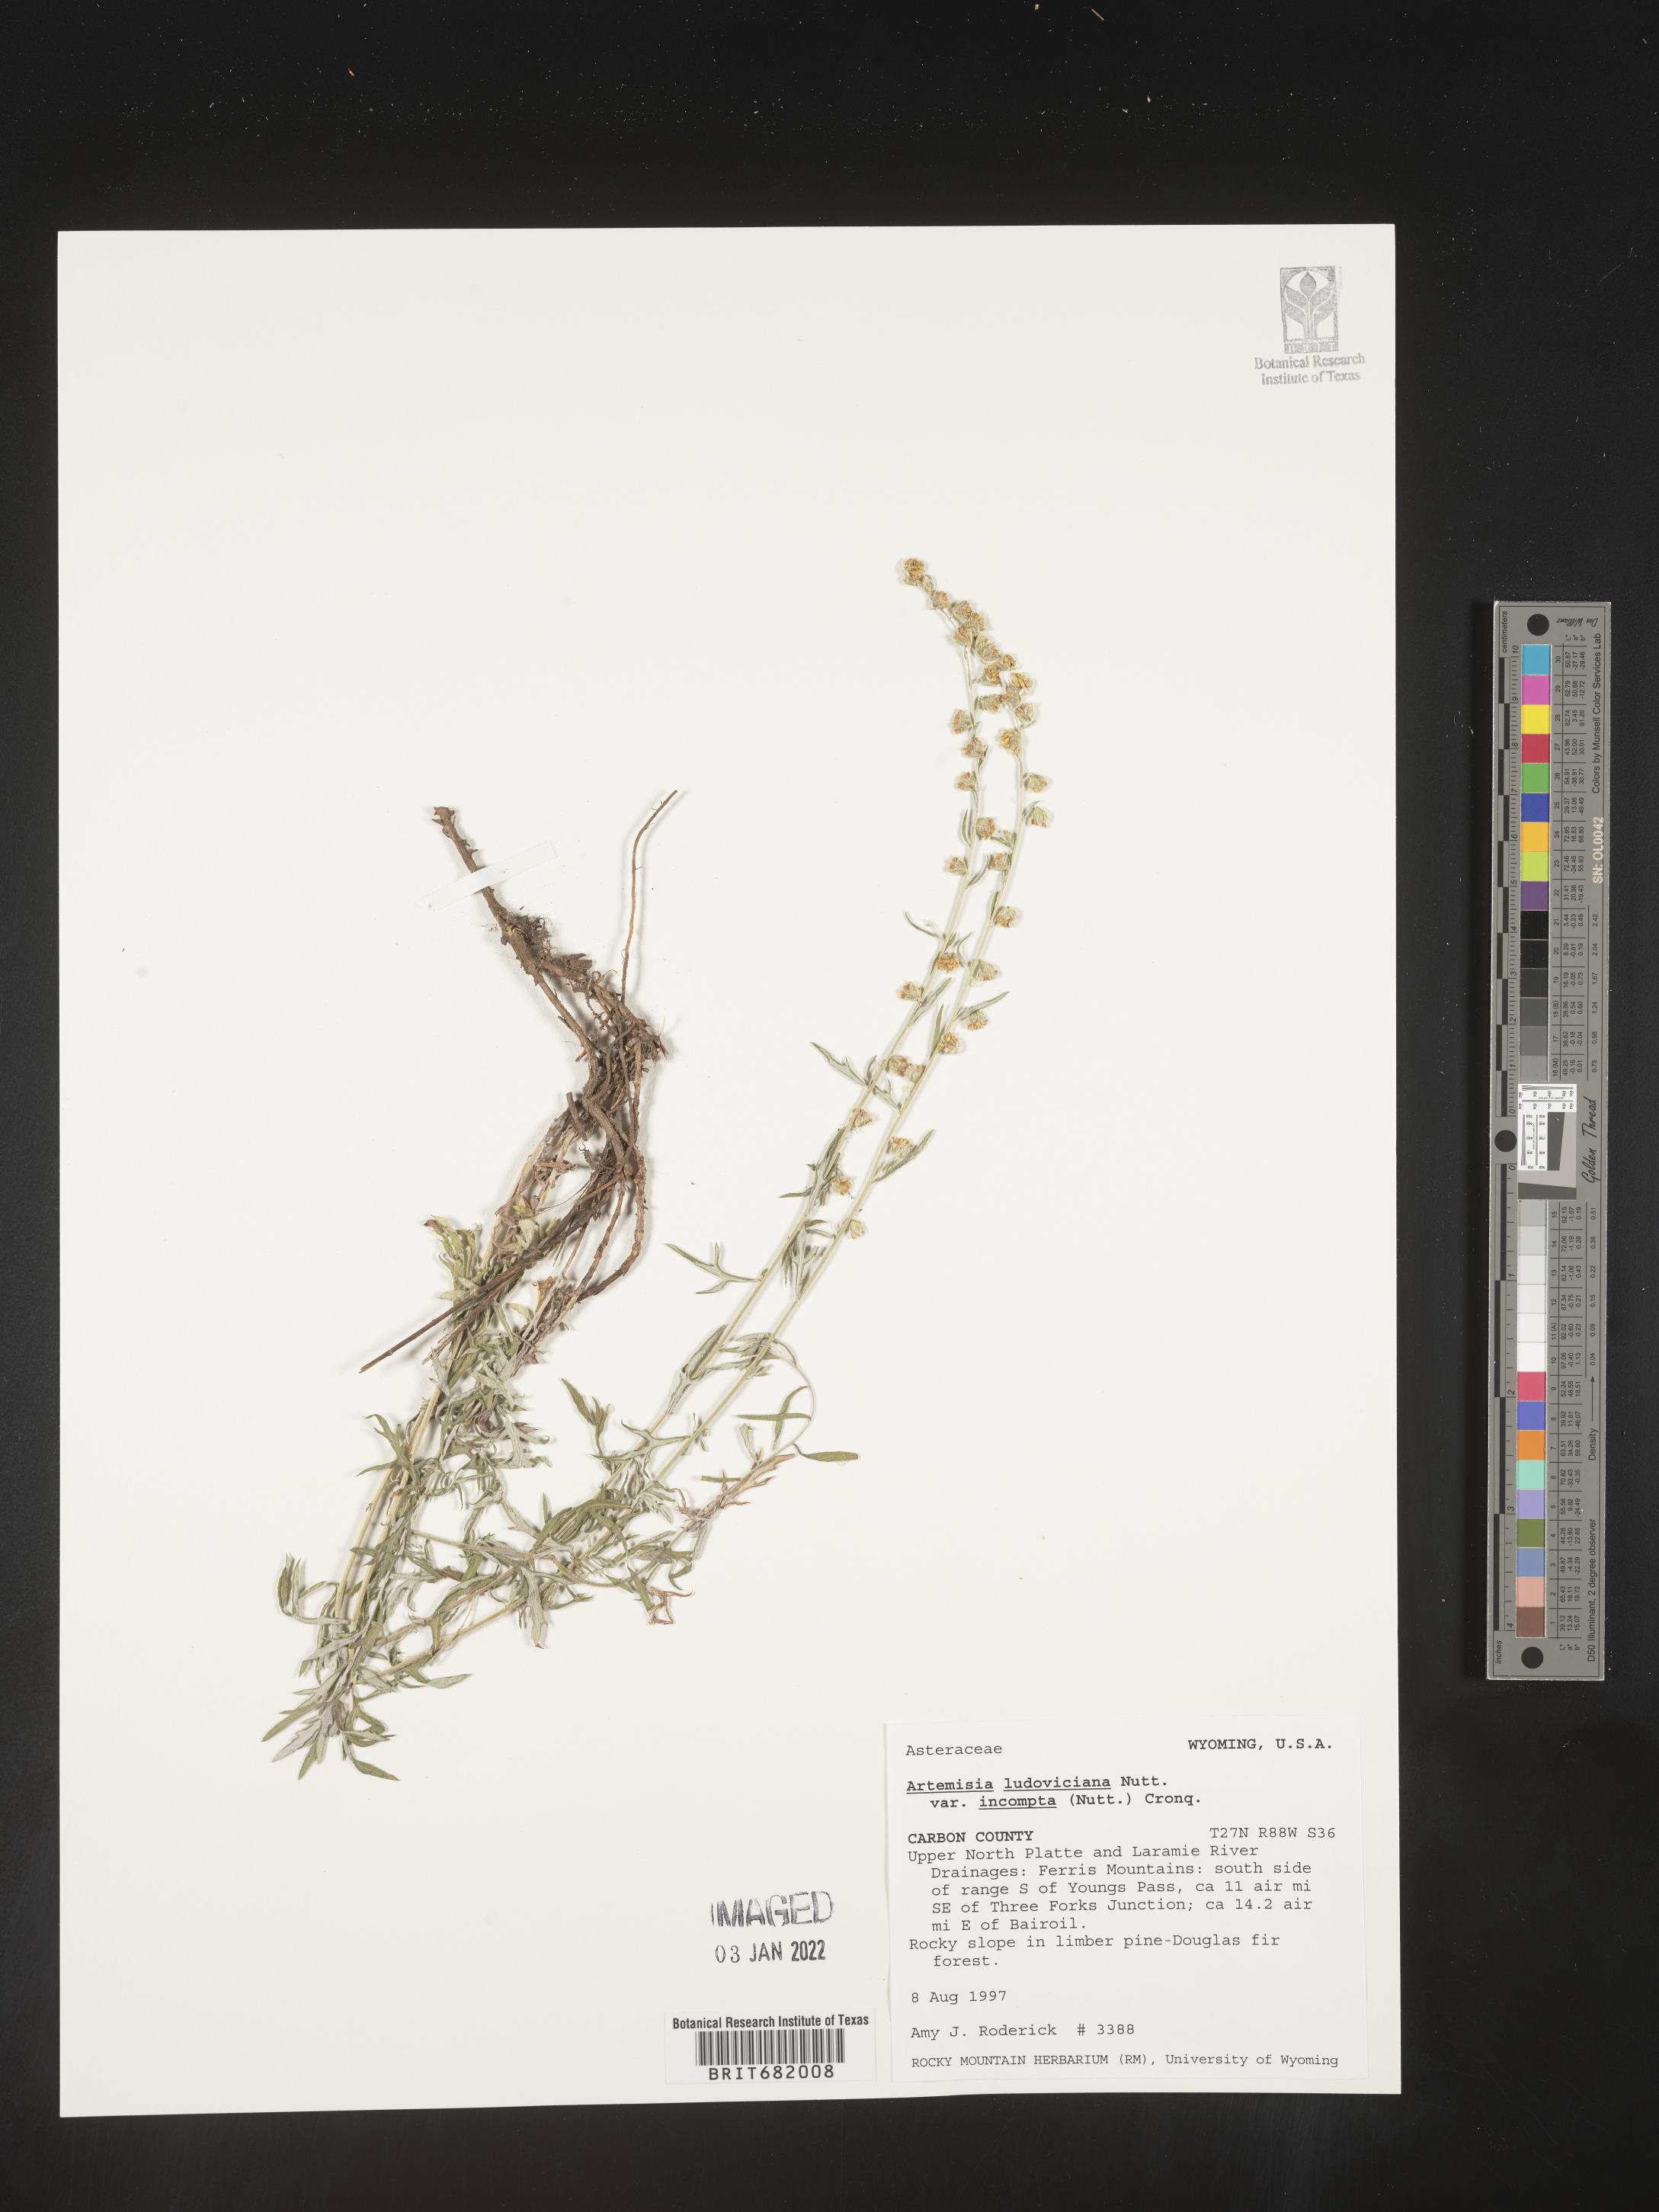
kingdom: Plantae
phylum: Tracheophyta
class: Magnoliopsida
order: Asterales
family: Asteraceae
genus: Artemisia
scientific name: Artemisia ludoviciana
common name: Western mugwort
